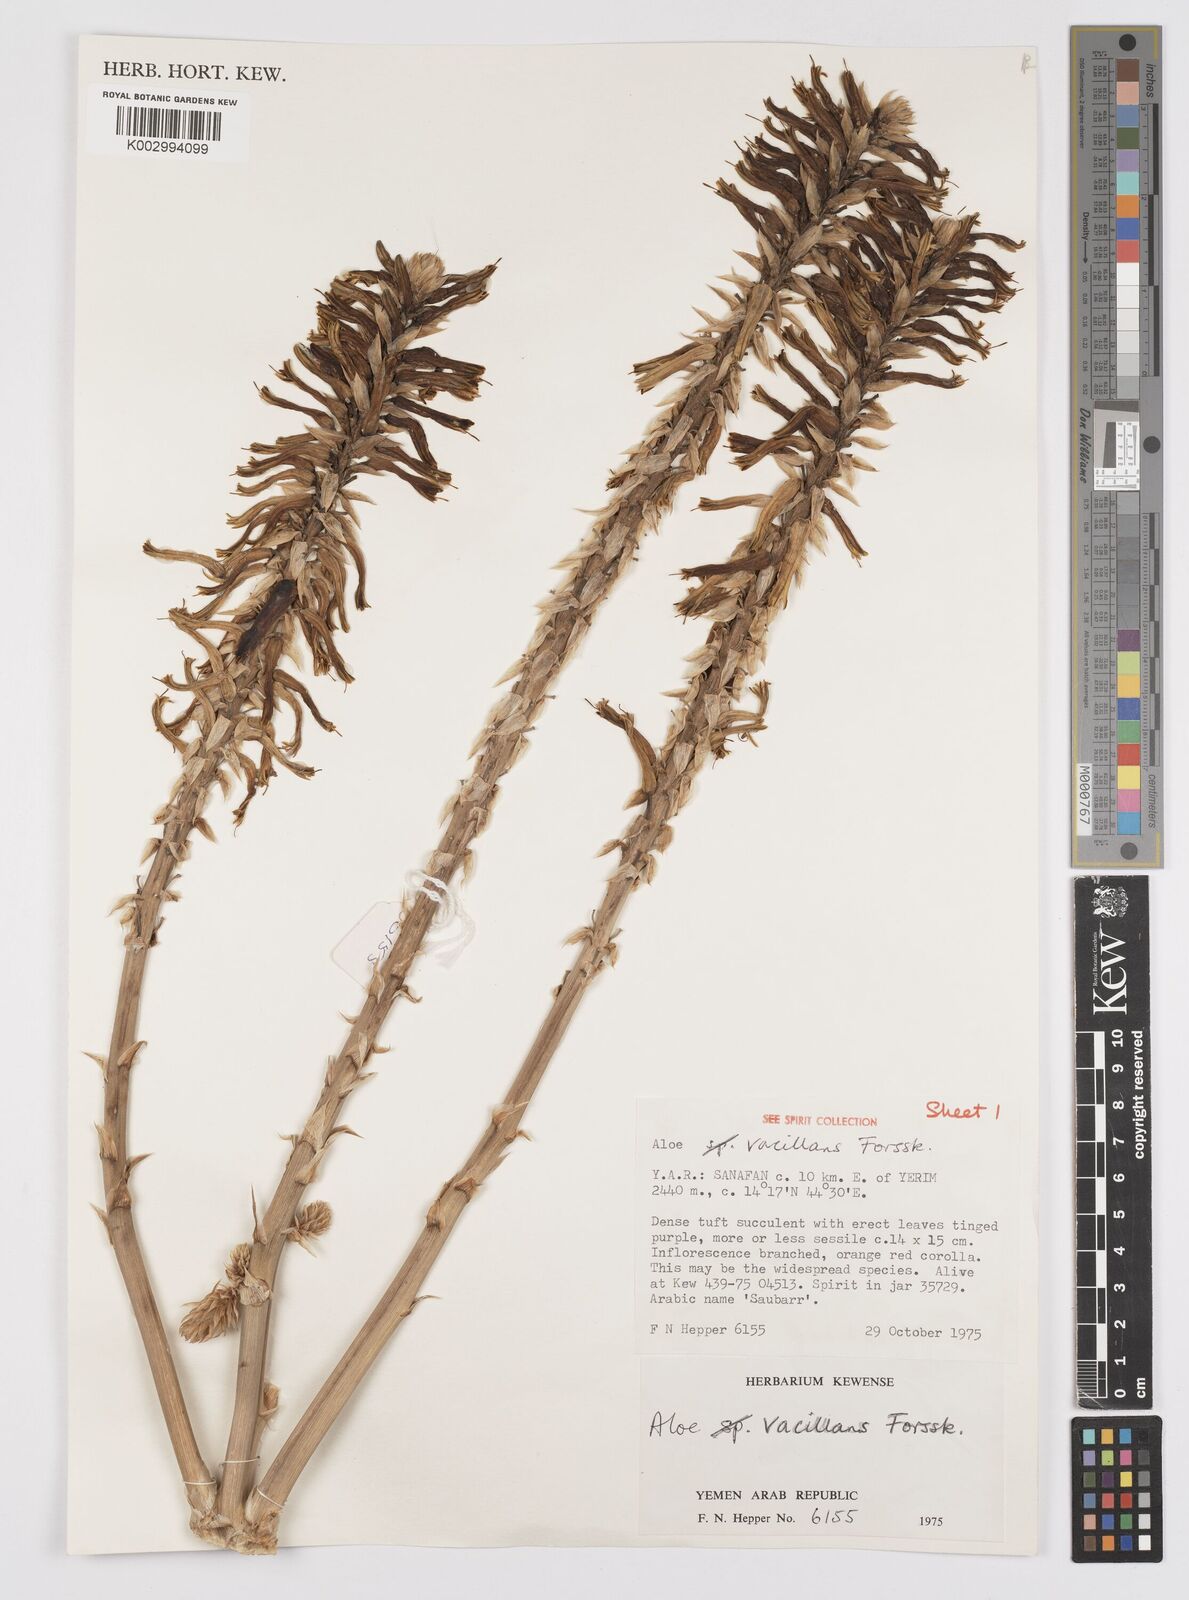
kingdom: Plantae
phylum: Tracheophyta
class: Liliopsida
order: Asparagales
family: Asphodelaceae
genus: Aloe
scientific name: Aloe vacillans
